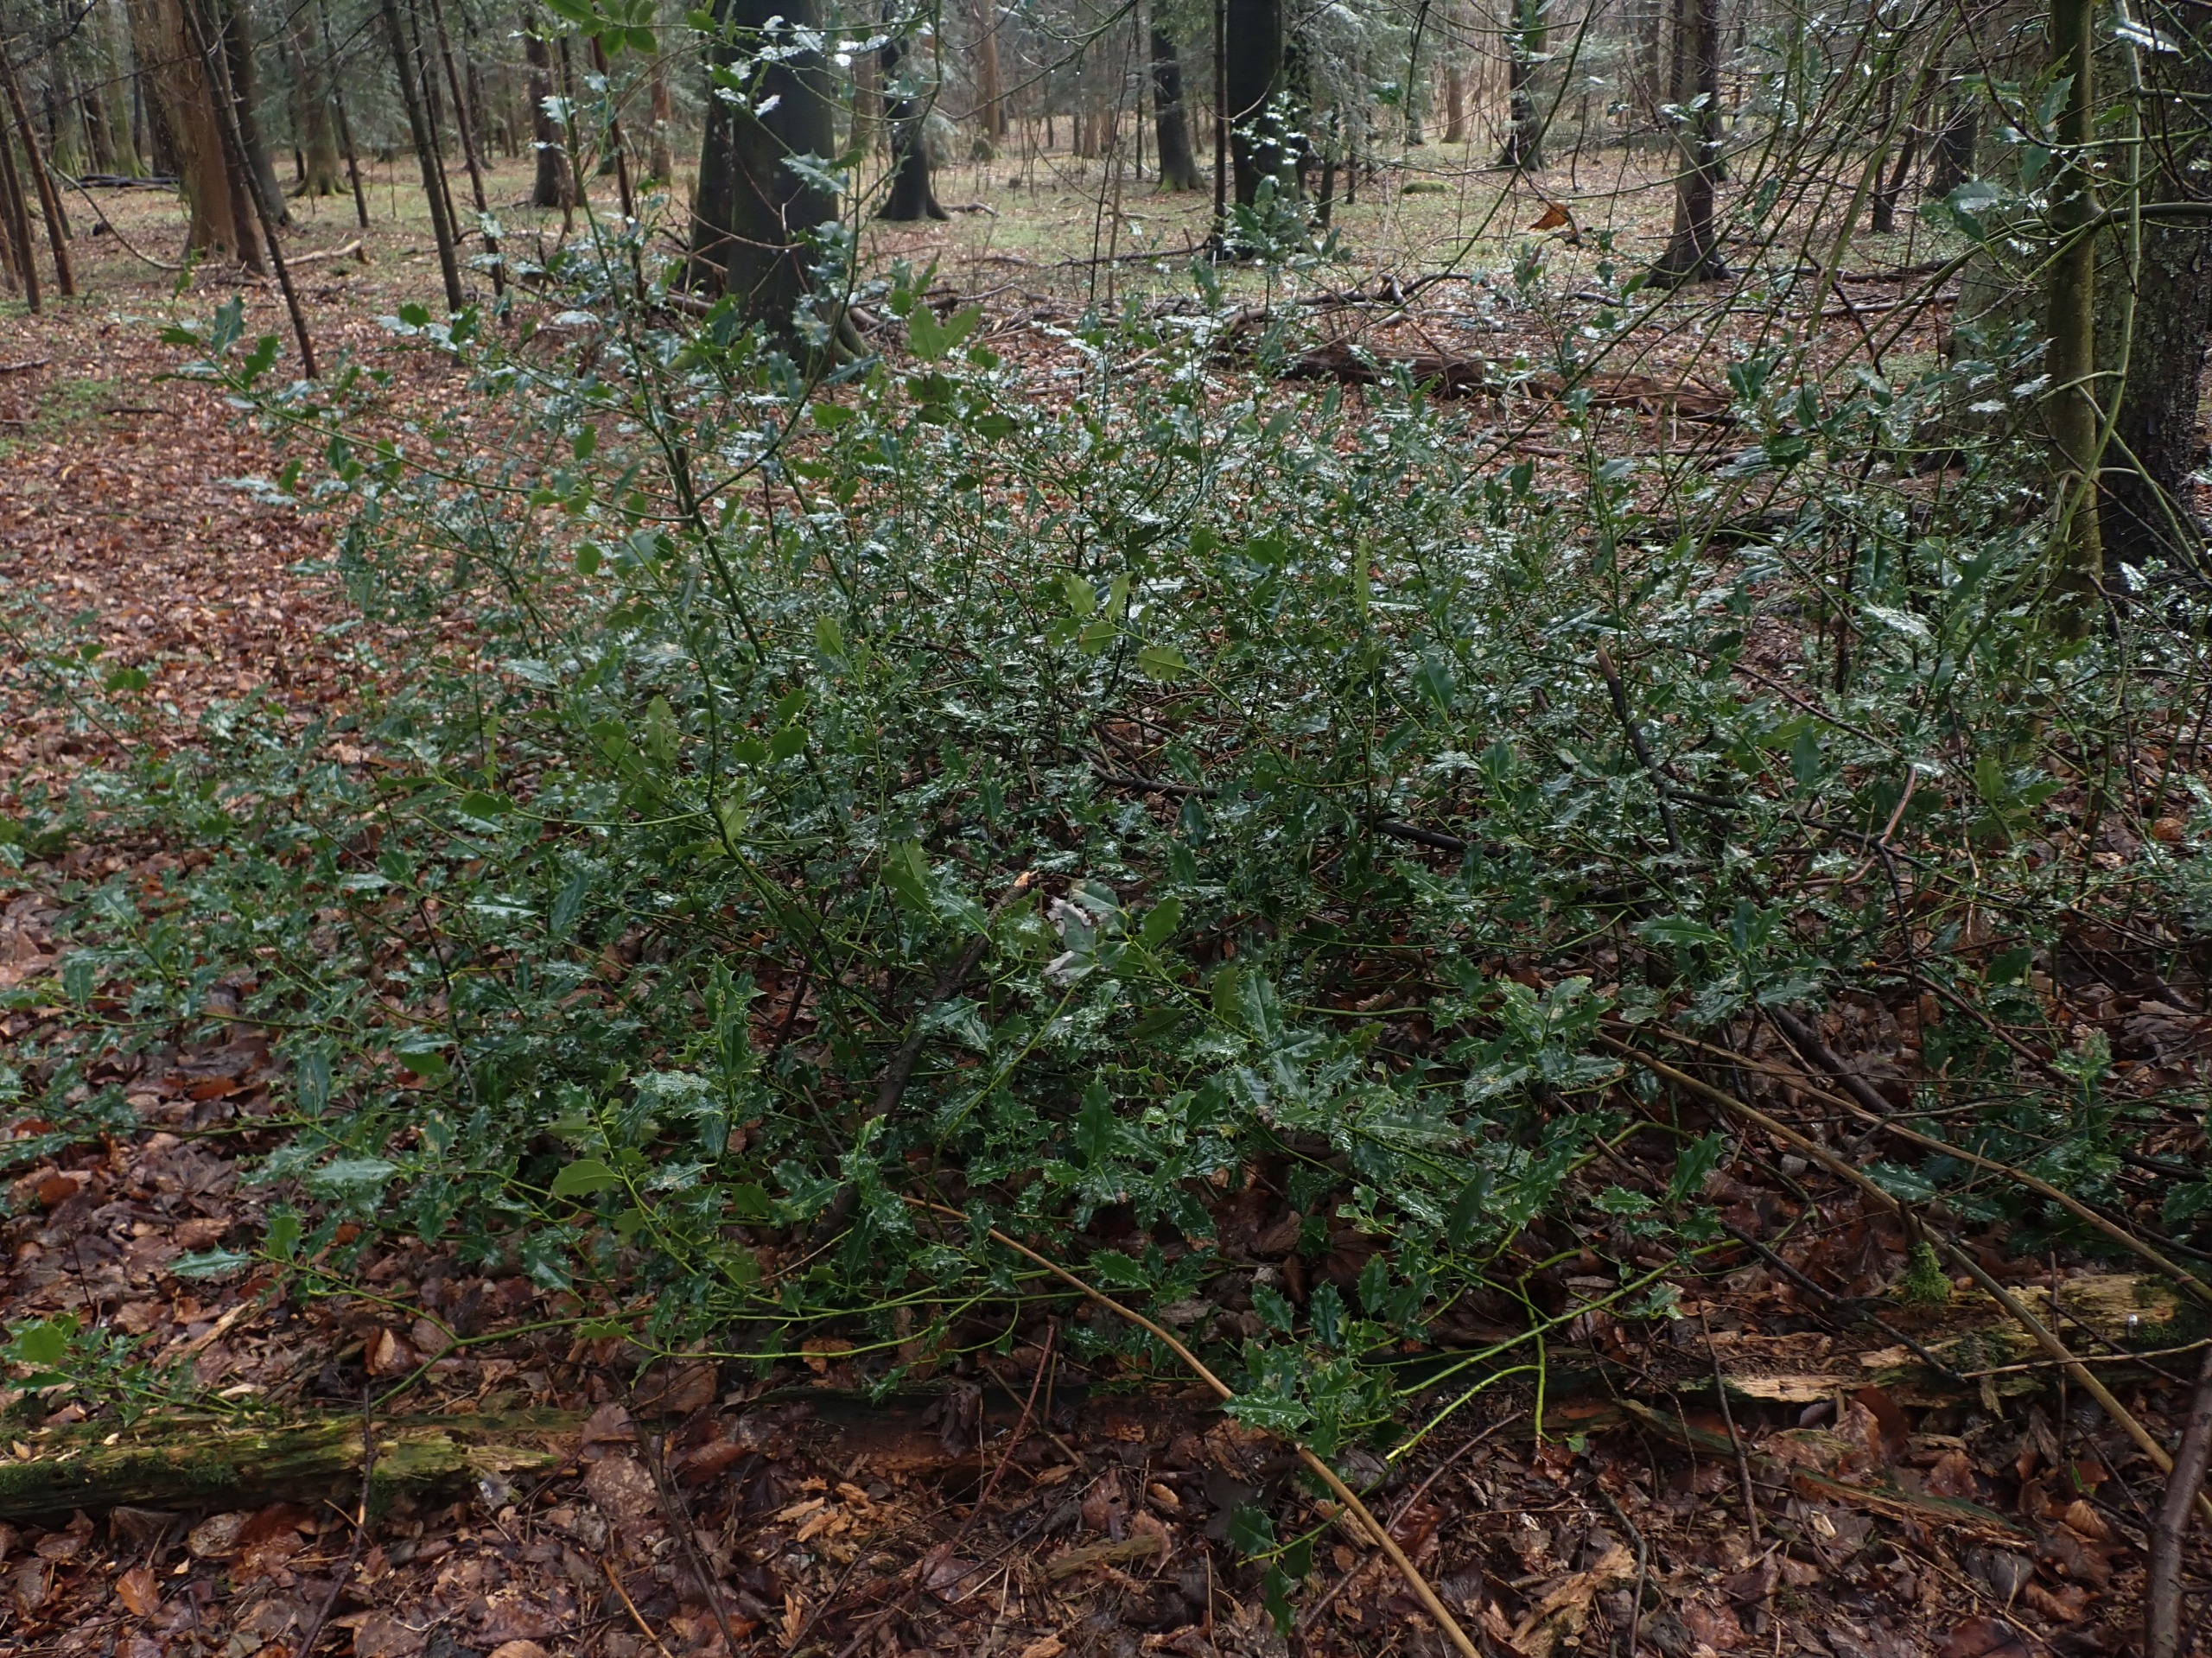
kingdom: Plantae
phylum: Tracheophyta
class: Magnoliopsida
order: Aquifoliales
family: Aquifoliaceae
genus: Ilex
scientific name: Ilex aquifolium
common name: Kristtorn
